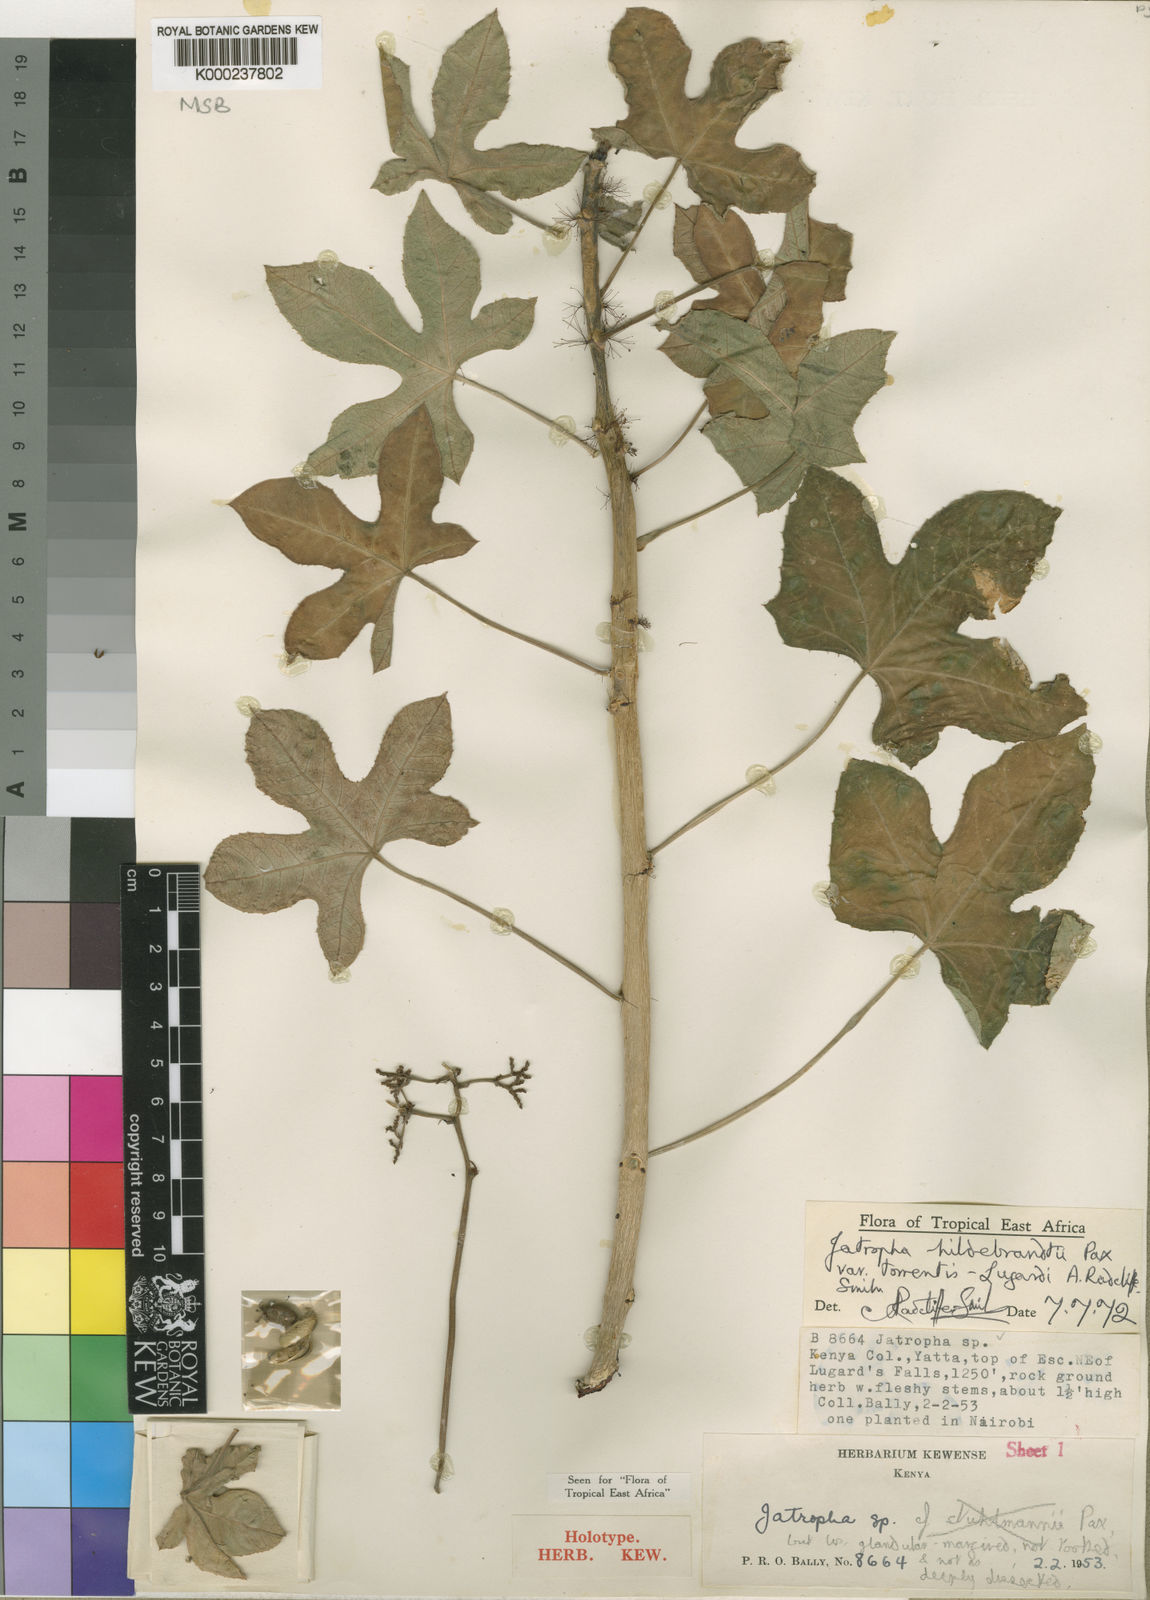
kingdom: Plantae
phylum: Tracheophyta
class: Magnoliopsida
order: Malpighiales
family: Euphorbiaceae
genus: Jatropha
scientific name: Jatropha hildebrandtii
